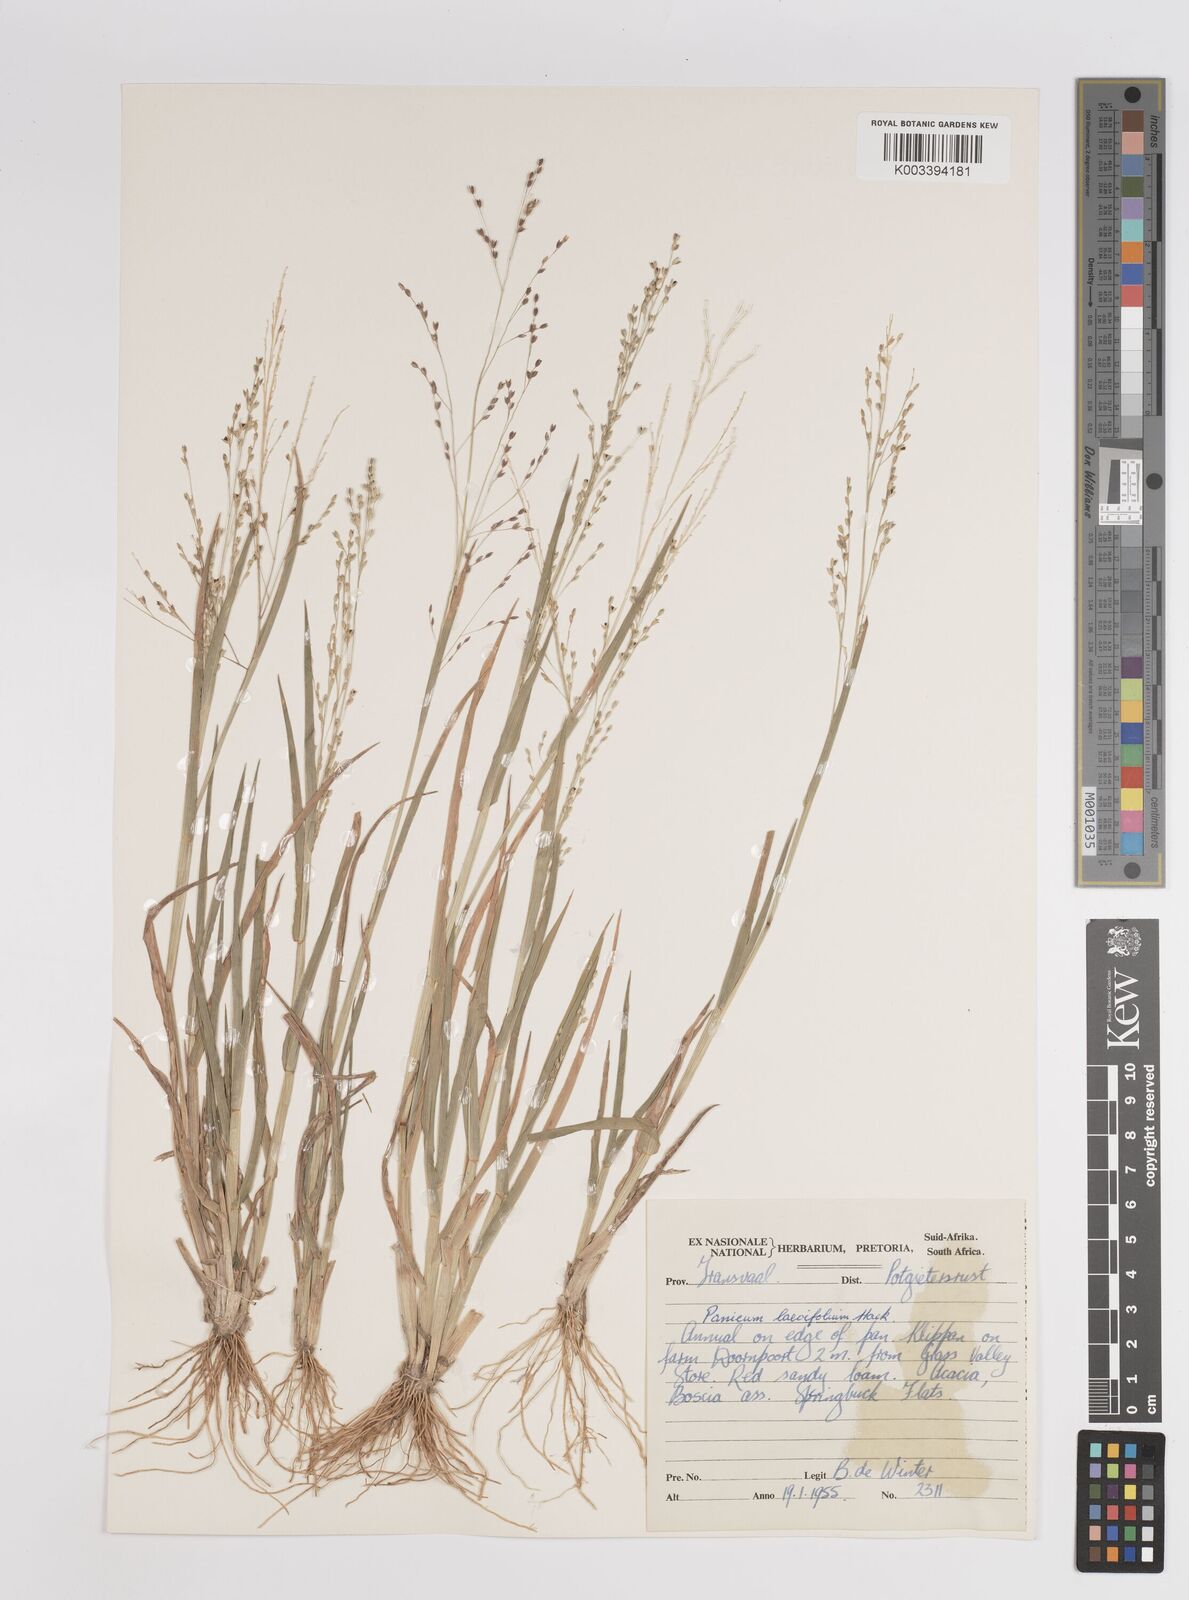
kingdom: Plantae
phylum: Tracheophyta
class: Liliopsida
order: Poales
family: Poaceae
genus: Panicum
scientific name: Panicum
